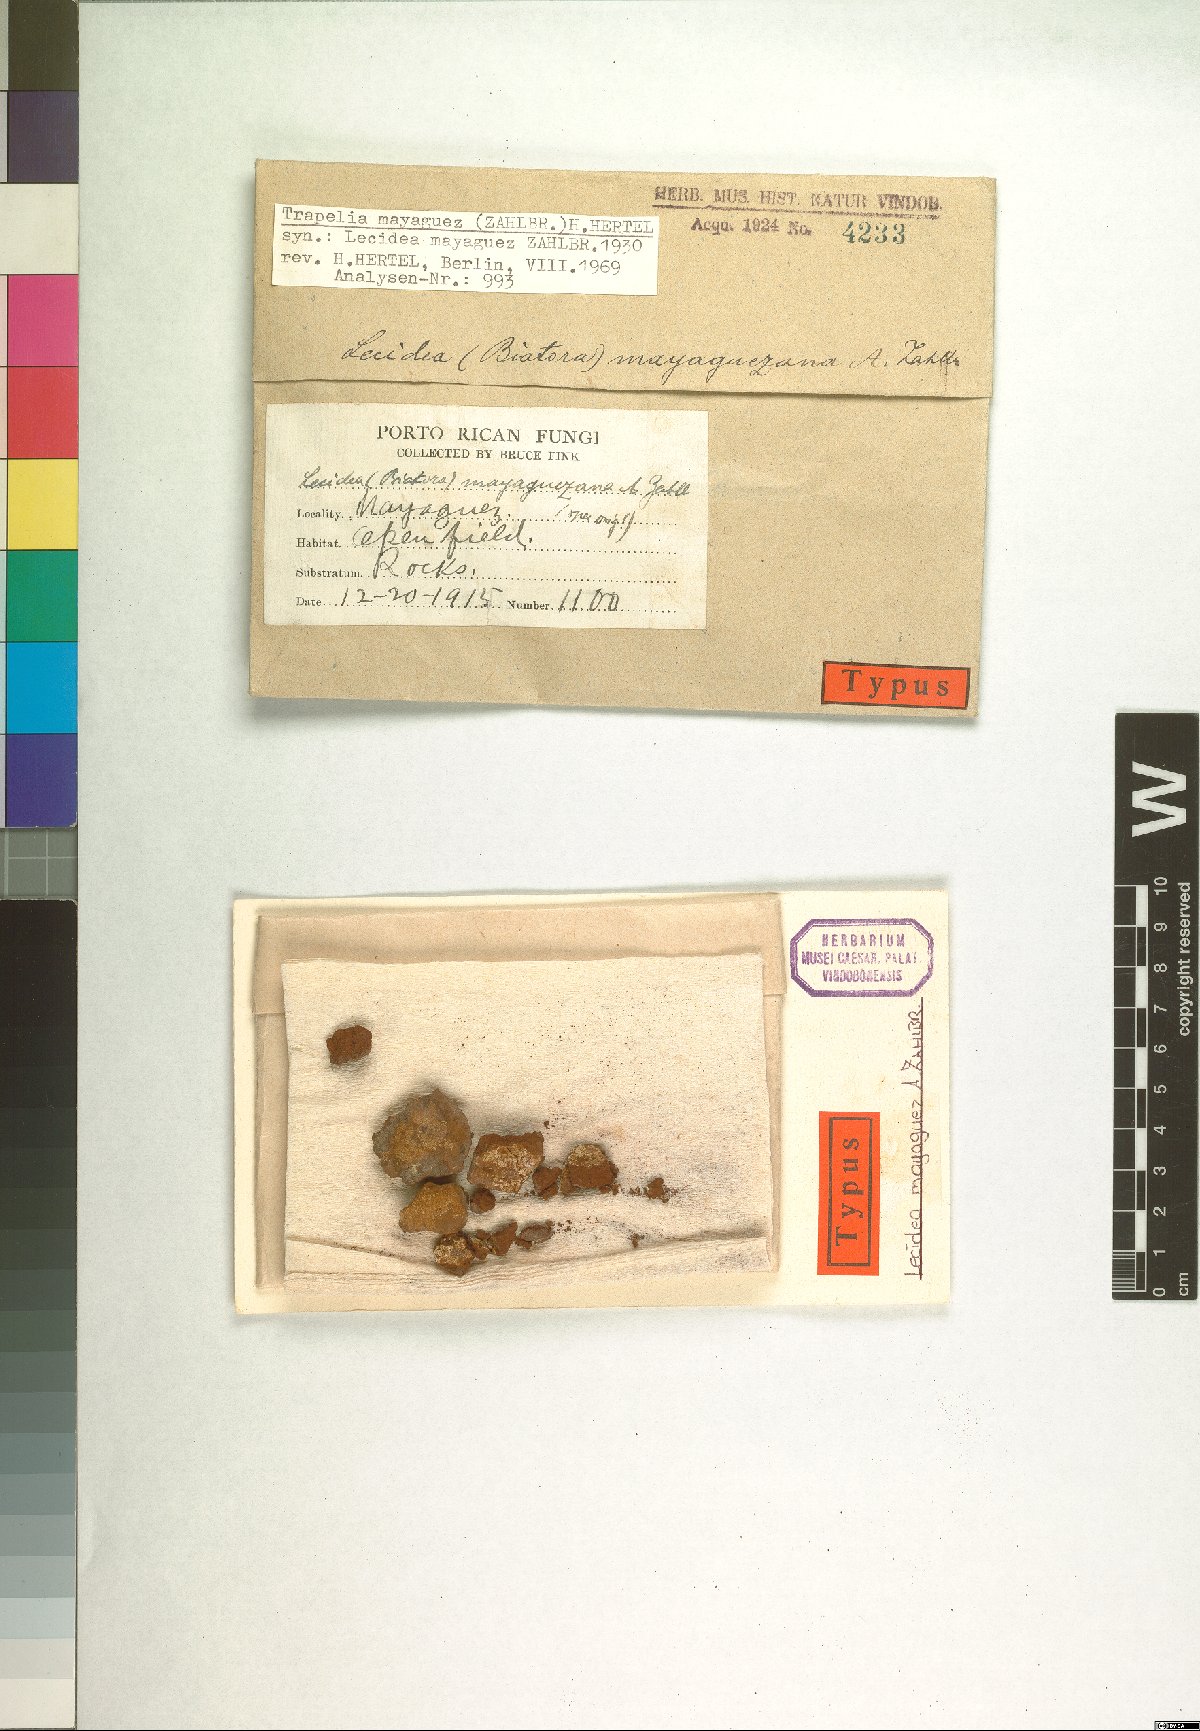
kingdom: Fungi
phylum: Ascomycota
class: Lecanoromycetes
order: Lecideales
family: Lecideaceae
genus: Lecidea
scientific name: Lecidea
